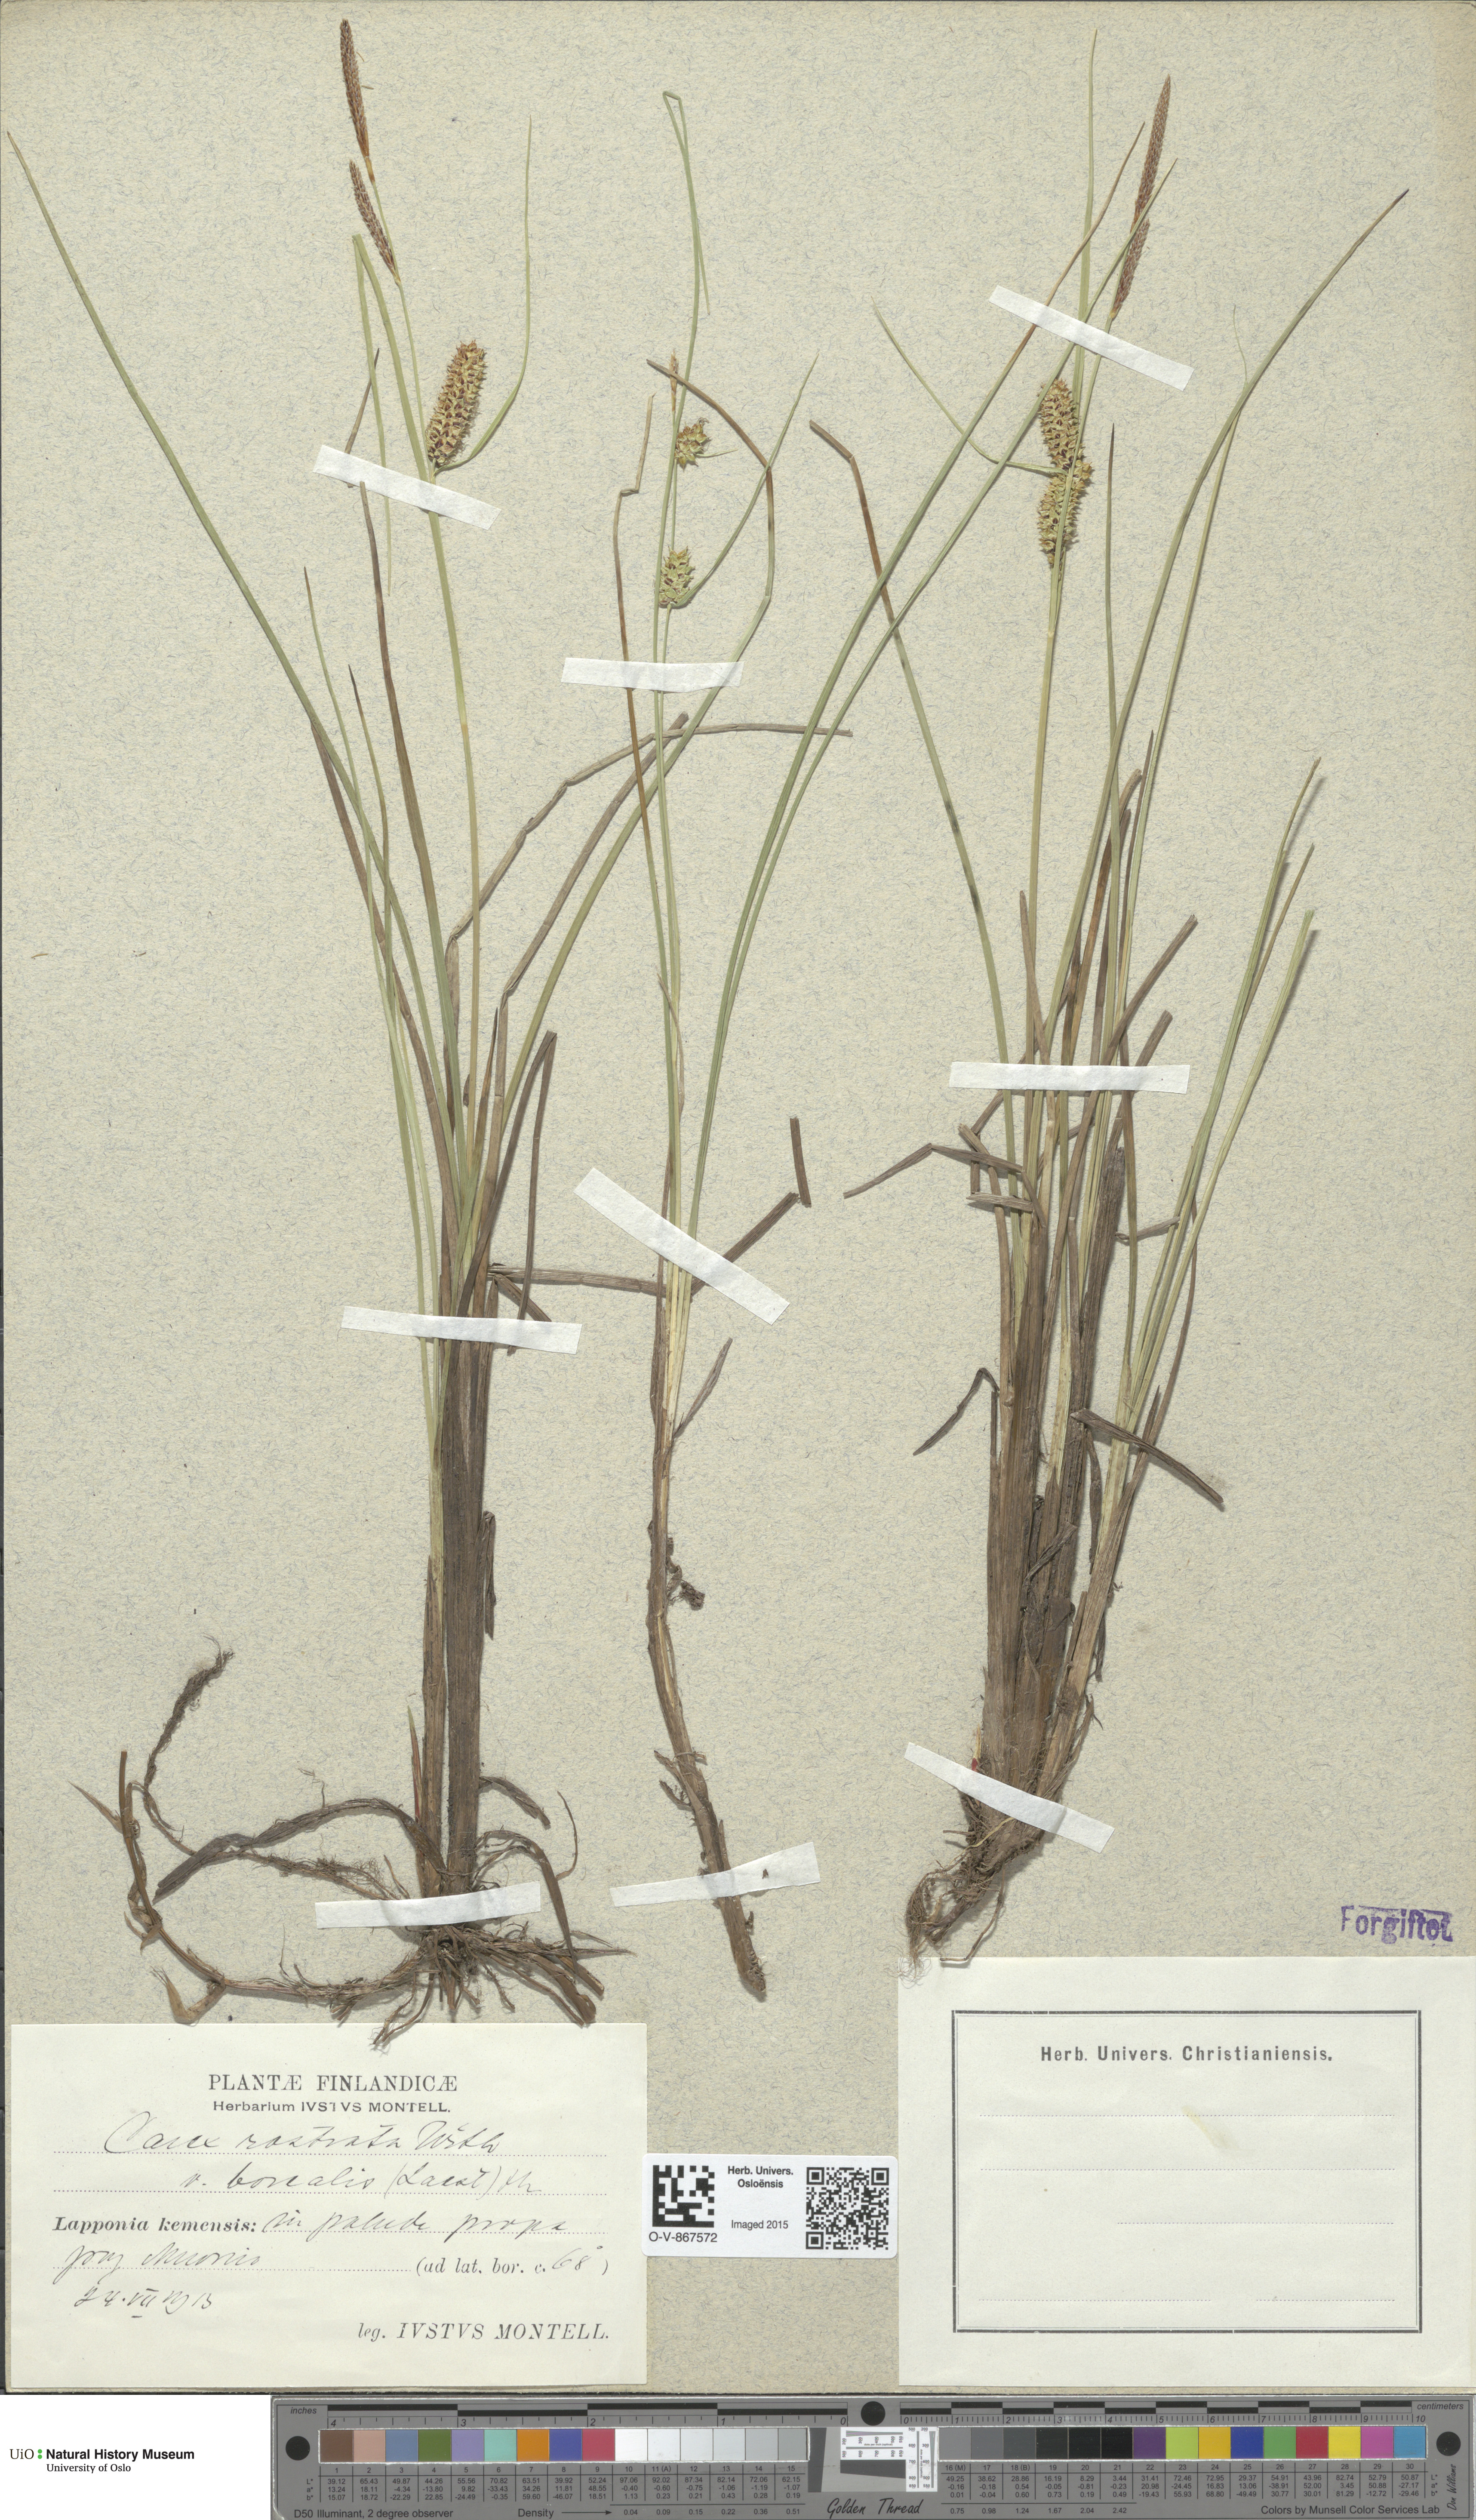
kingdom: Plantae
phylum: Tracheophyta
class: Liliopsida
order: Poales
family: Cyperaceae
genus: Carex
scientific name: Carex rostrata
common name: Bottle sedge
